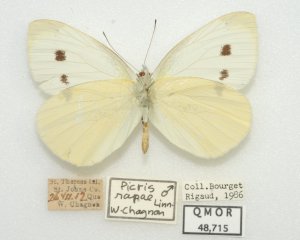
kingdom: Animalia
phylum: Arthropoda
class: Insecta
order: Lepidoptera
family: Pieridae
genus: Pieris
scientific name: Pieris rapae
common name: Cabbage White
